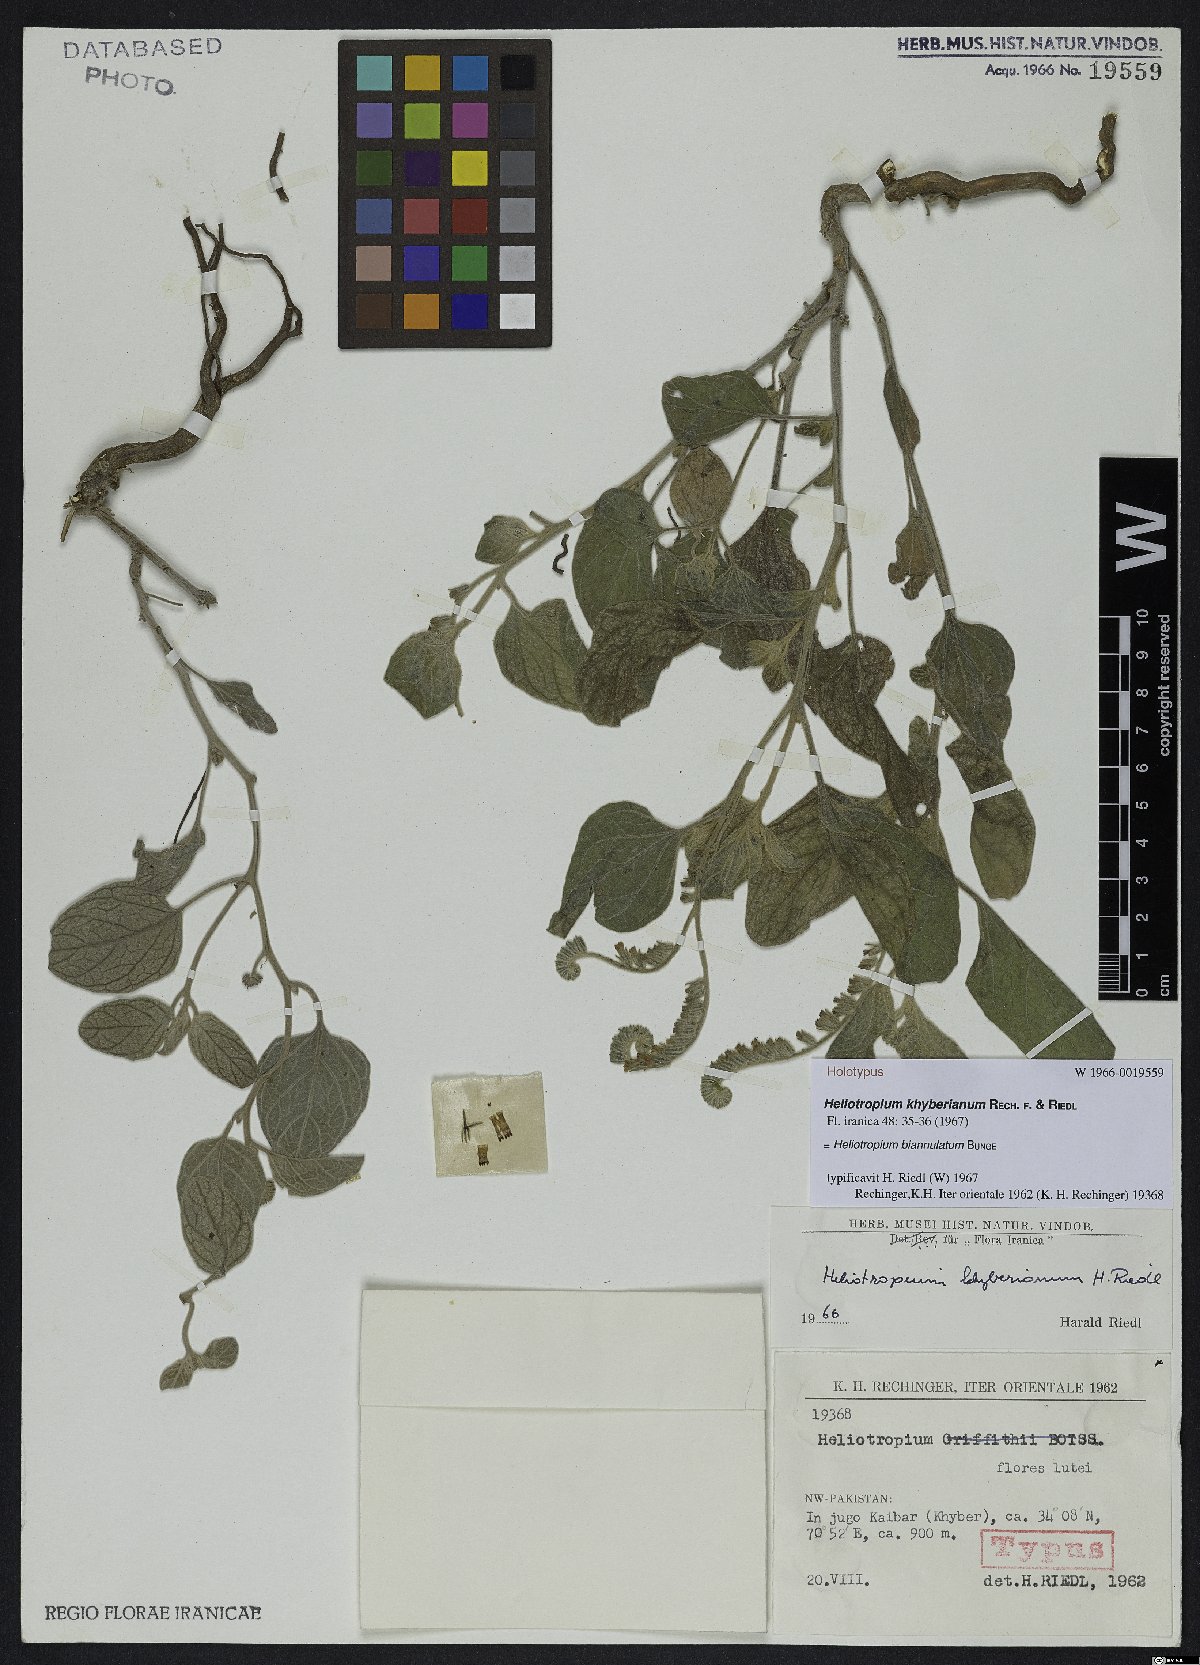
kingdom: Plantae
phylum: Tracheophyta
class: Magnoliopsida
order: Boraginales
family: Heliotropiaceae
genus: Heliotropium
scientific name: Heliotropium biannulatum
